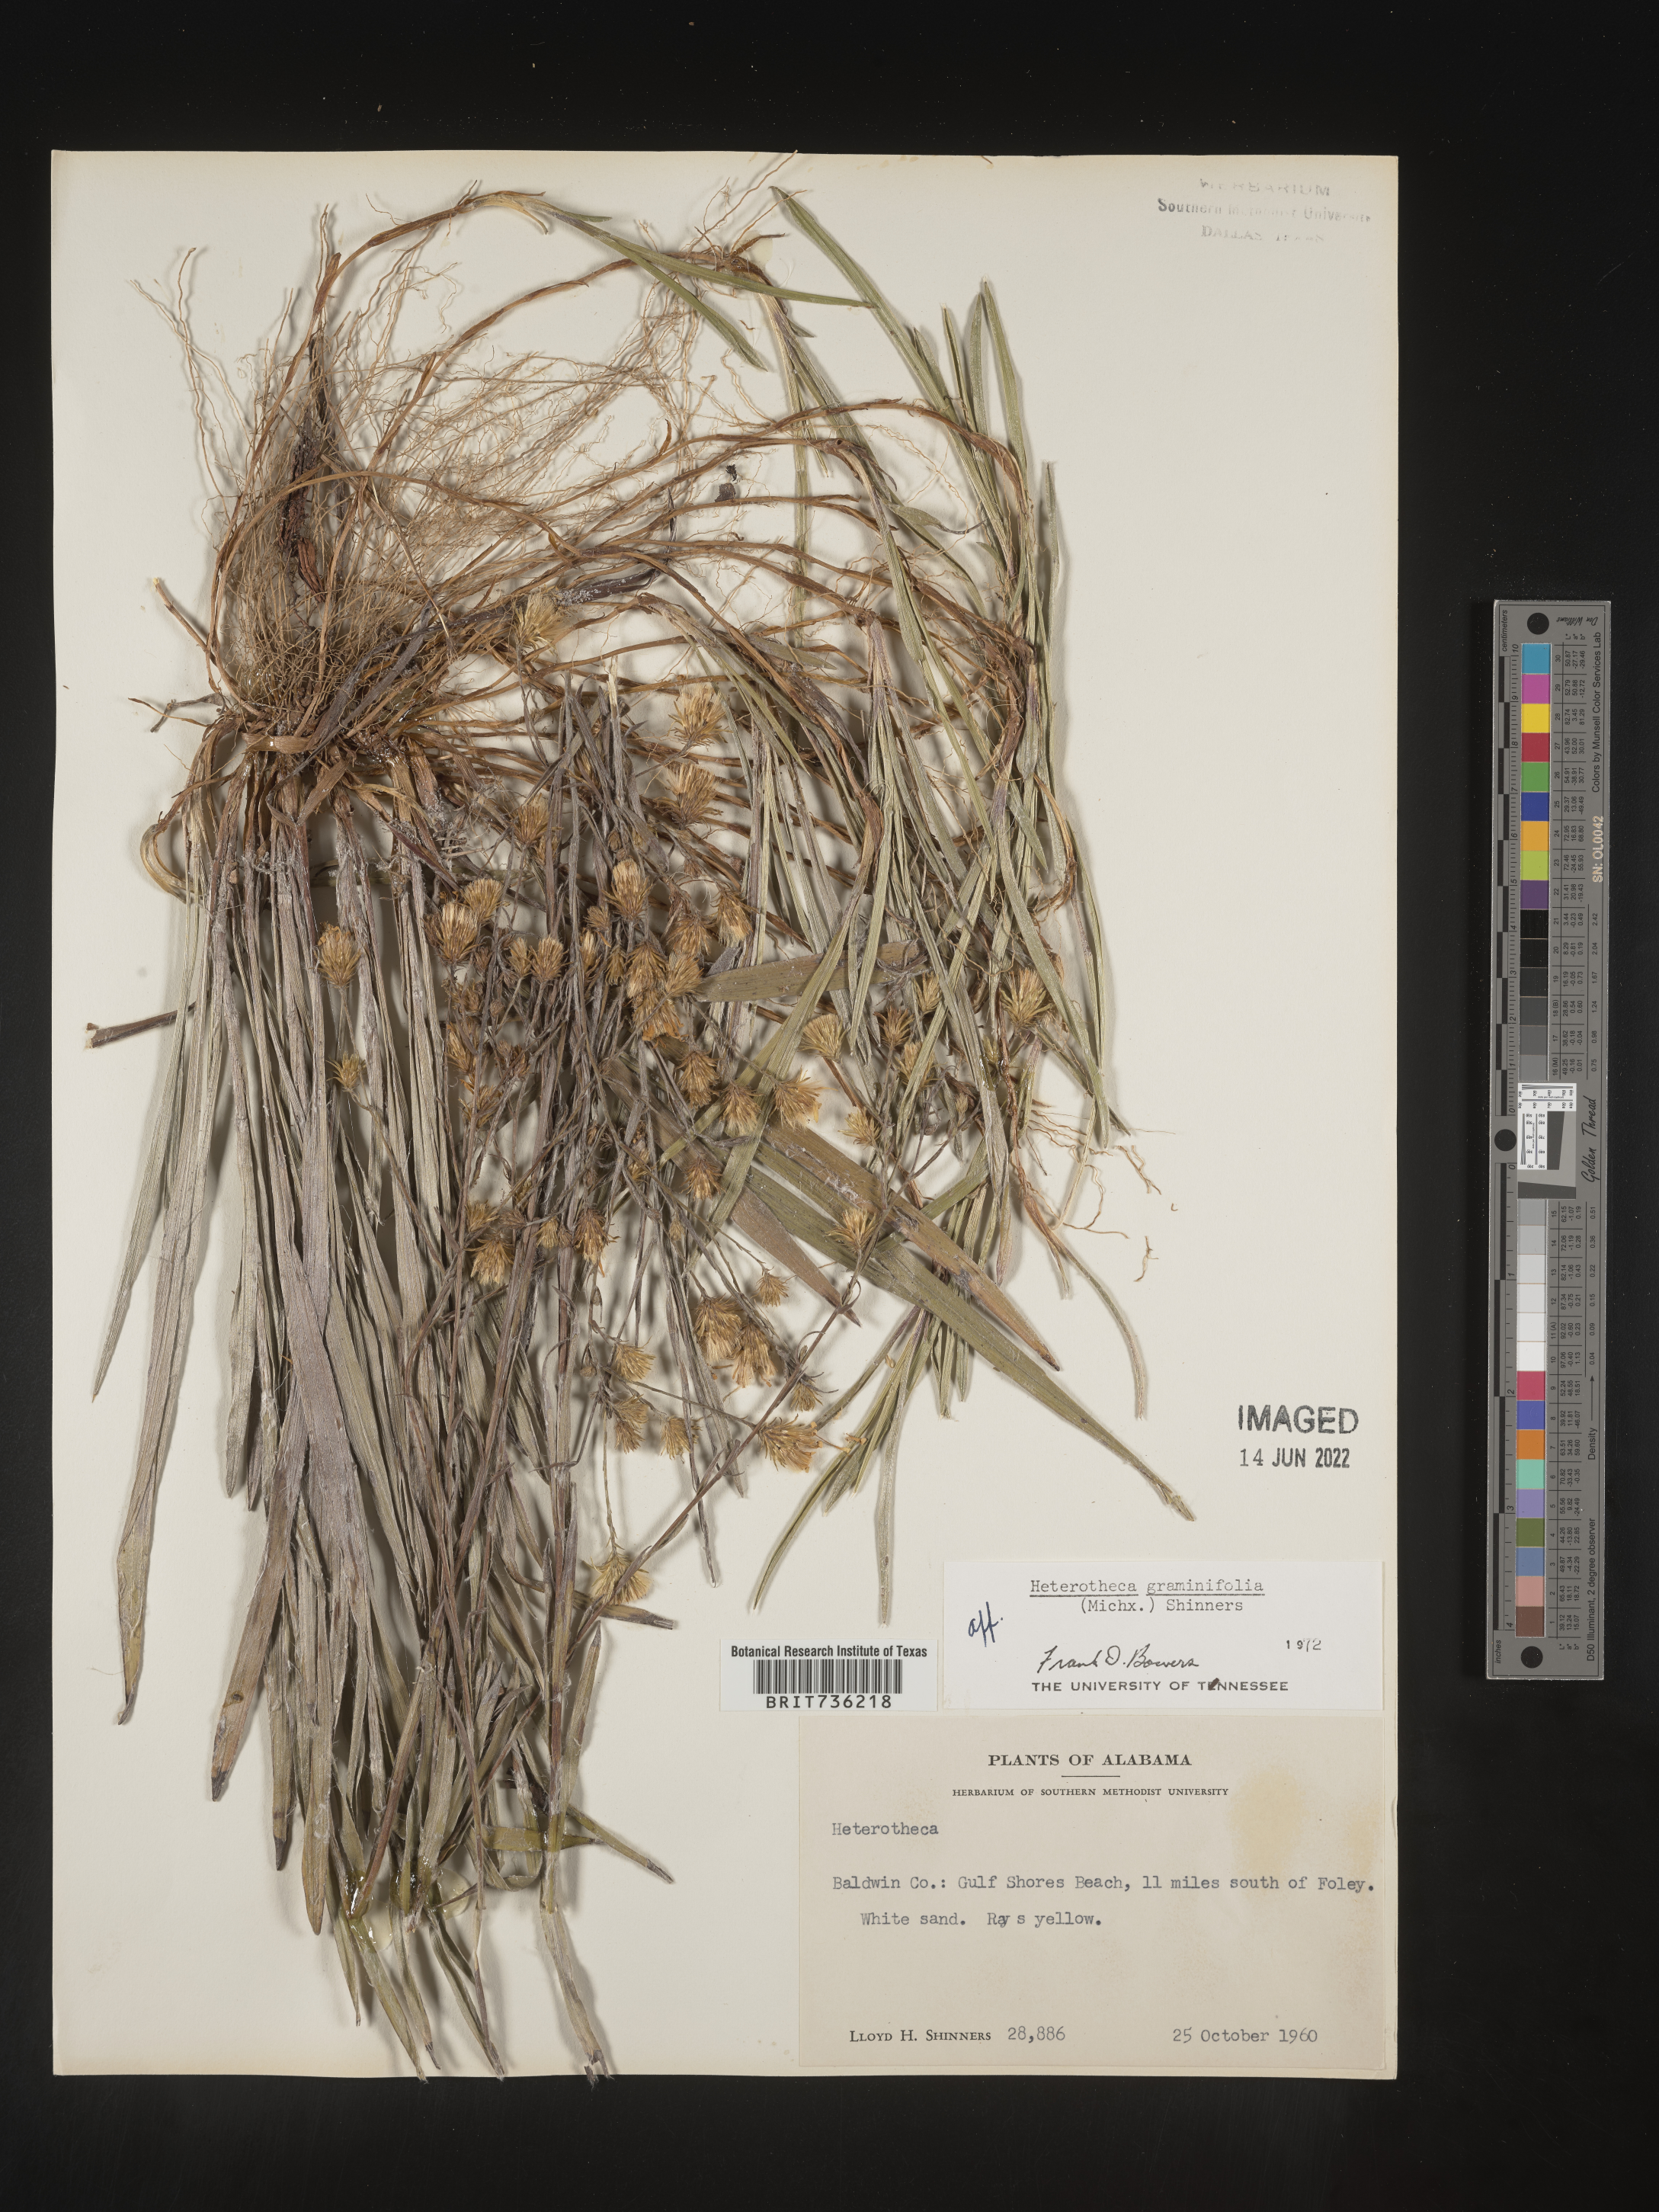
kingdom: Plantae
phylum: Tracheophyta
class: Magnoliopsida
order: Asterales
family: Asteraceae
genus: Pityopsis
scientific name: Pityopsis graminifolia
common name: Grass-leaf golden-aster
